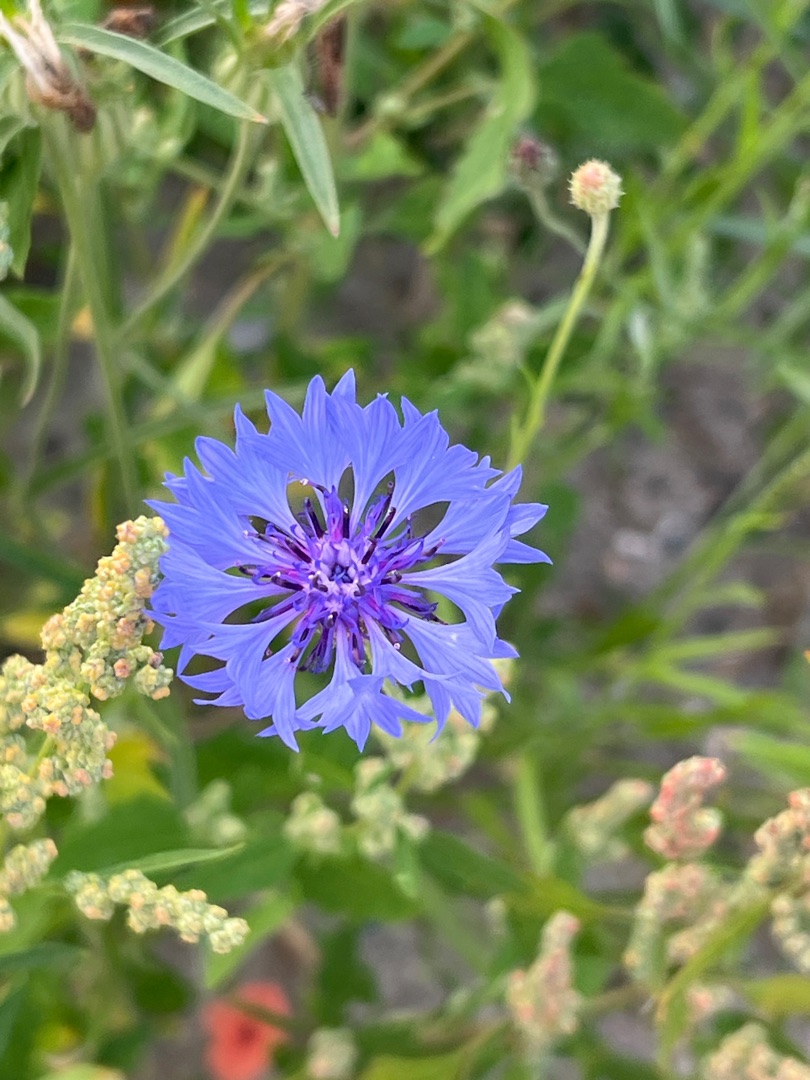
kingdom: Plantae
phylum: Tracheophyta
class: Magnoliopsida
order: Asterales
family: Asteraceae
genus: Centaurea
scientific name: Centaurea cyanus
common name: Kornblomst
